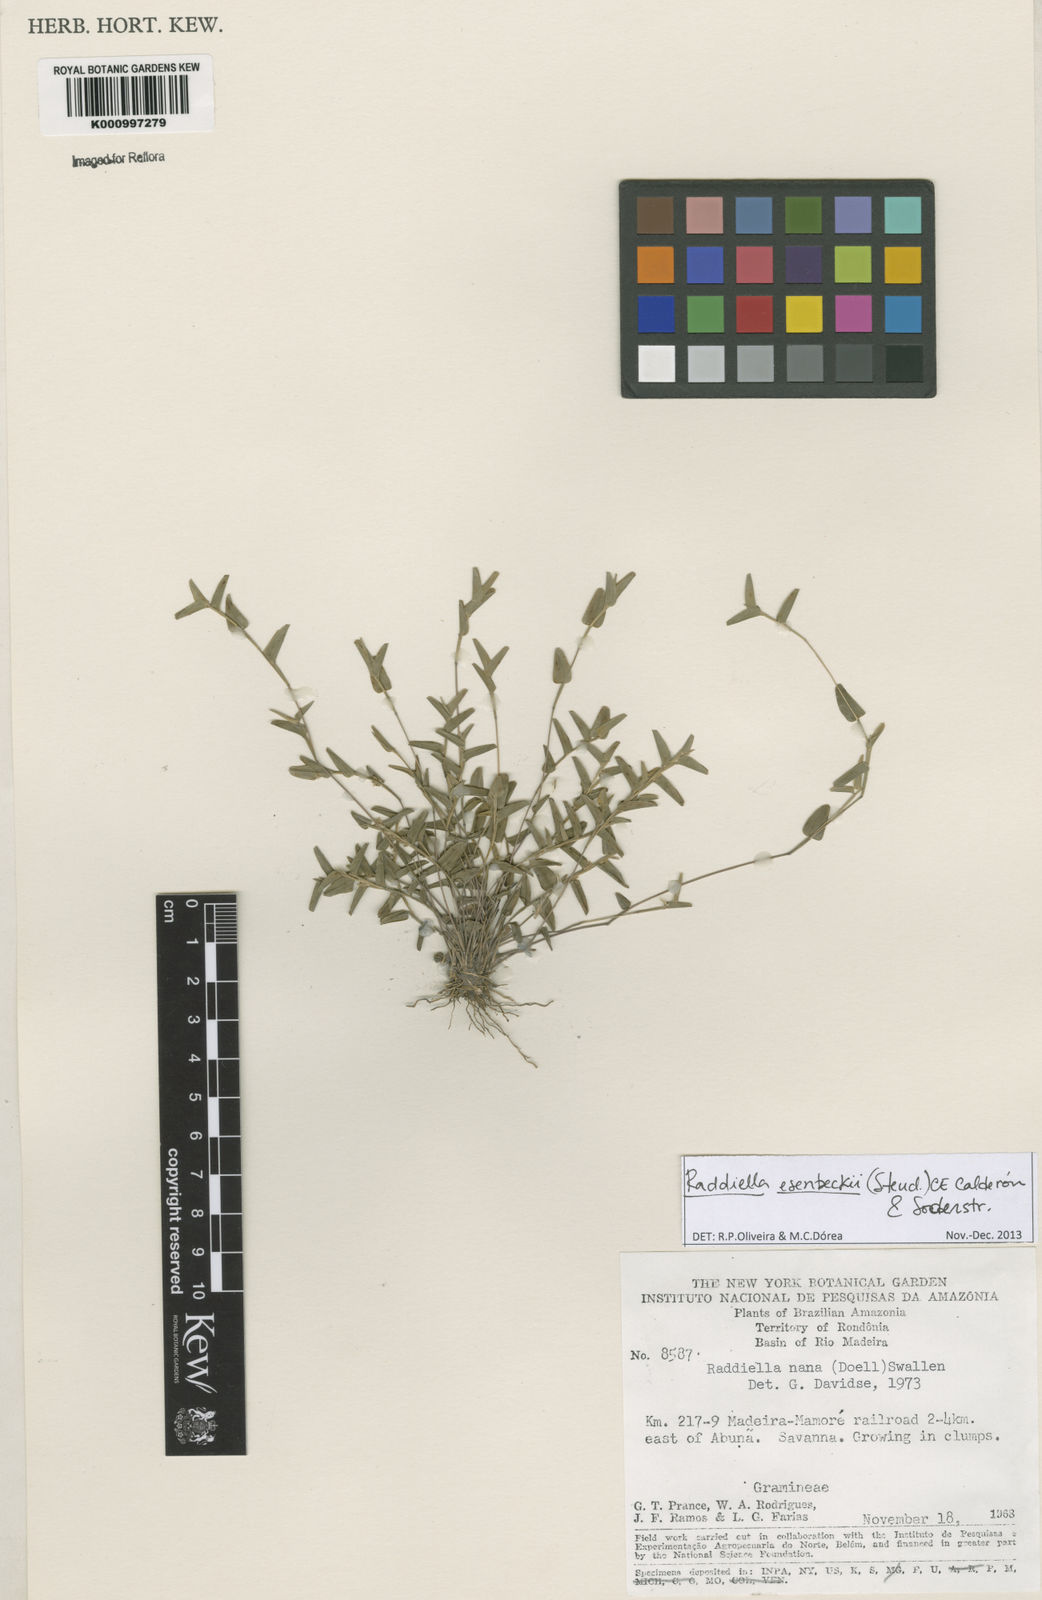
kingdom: Plantae
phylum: Tracheophyta
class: Liliopsida
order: Poales
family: Poaceae
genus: Raddiella
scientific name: Raddiella
